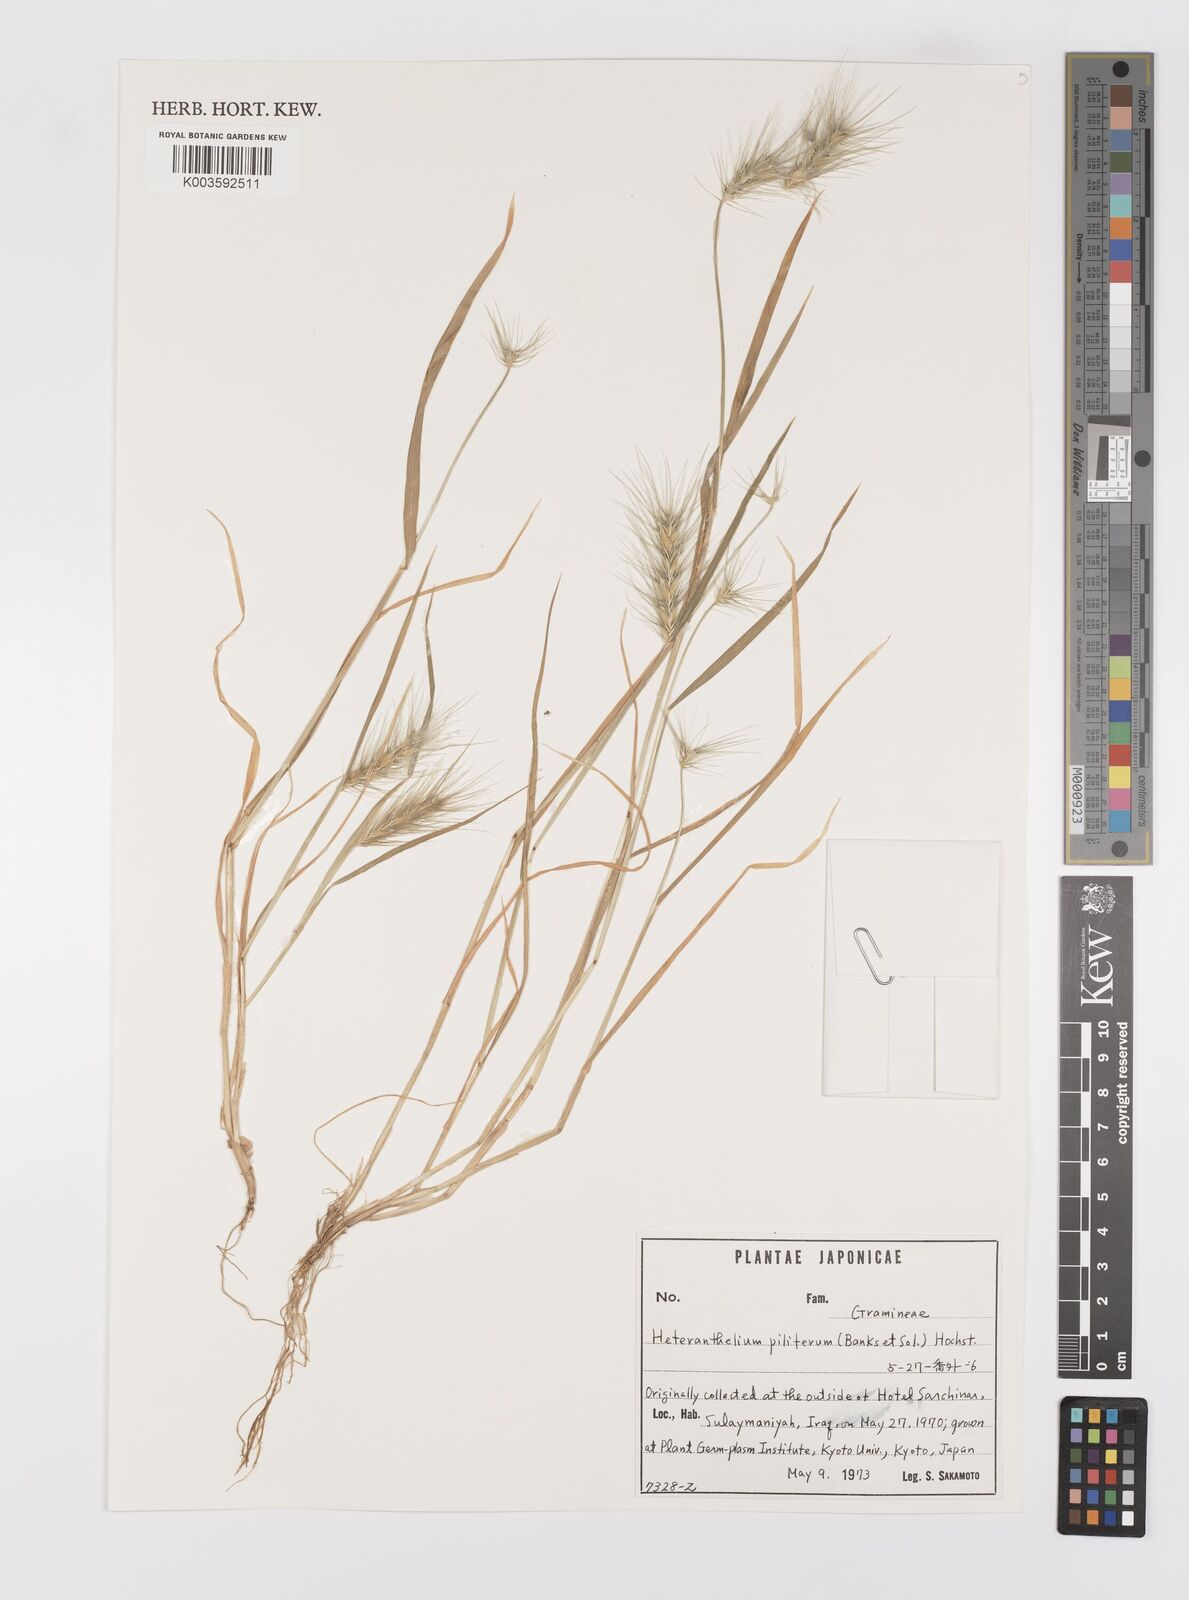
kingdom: Plantae
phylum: Tracheophyta
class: Liliopsida
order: Poales
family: Poaceae
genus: Heteranthelium
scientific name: Heteranthelium piliferum
